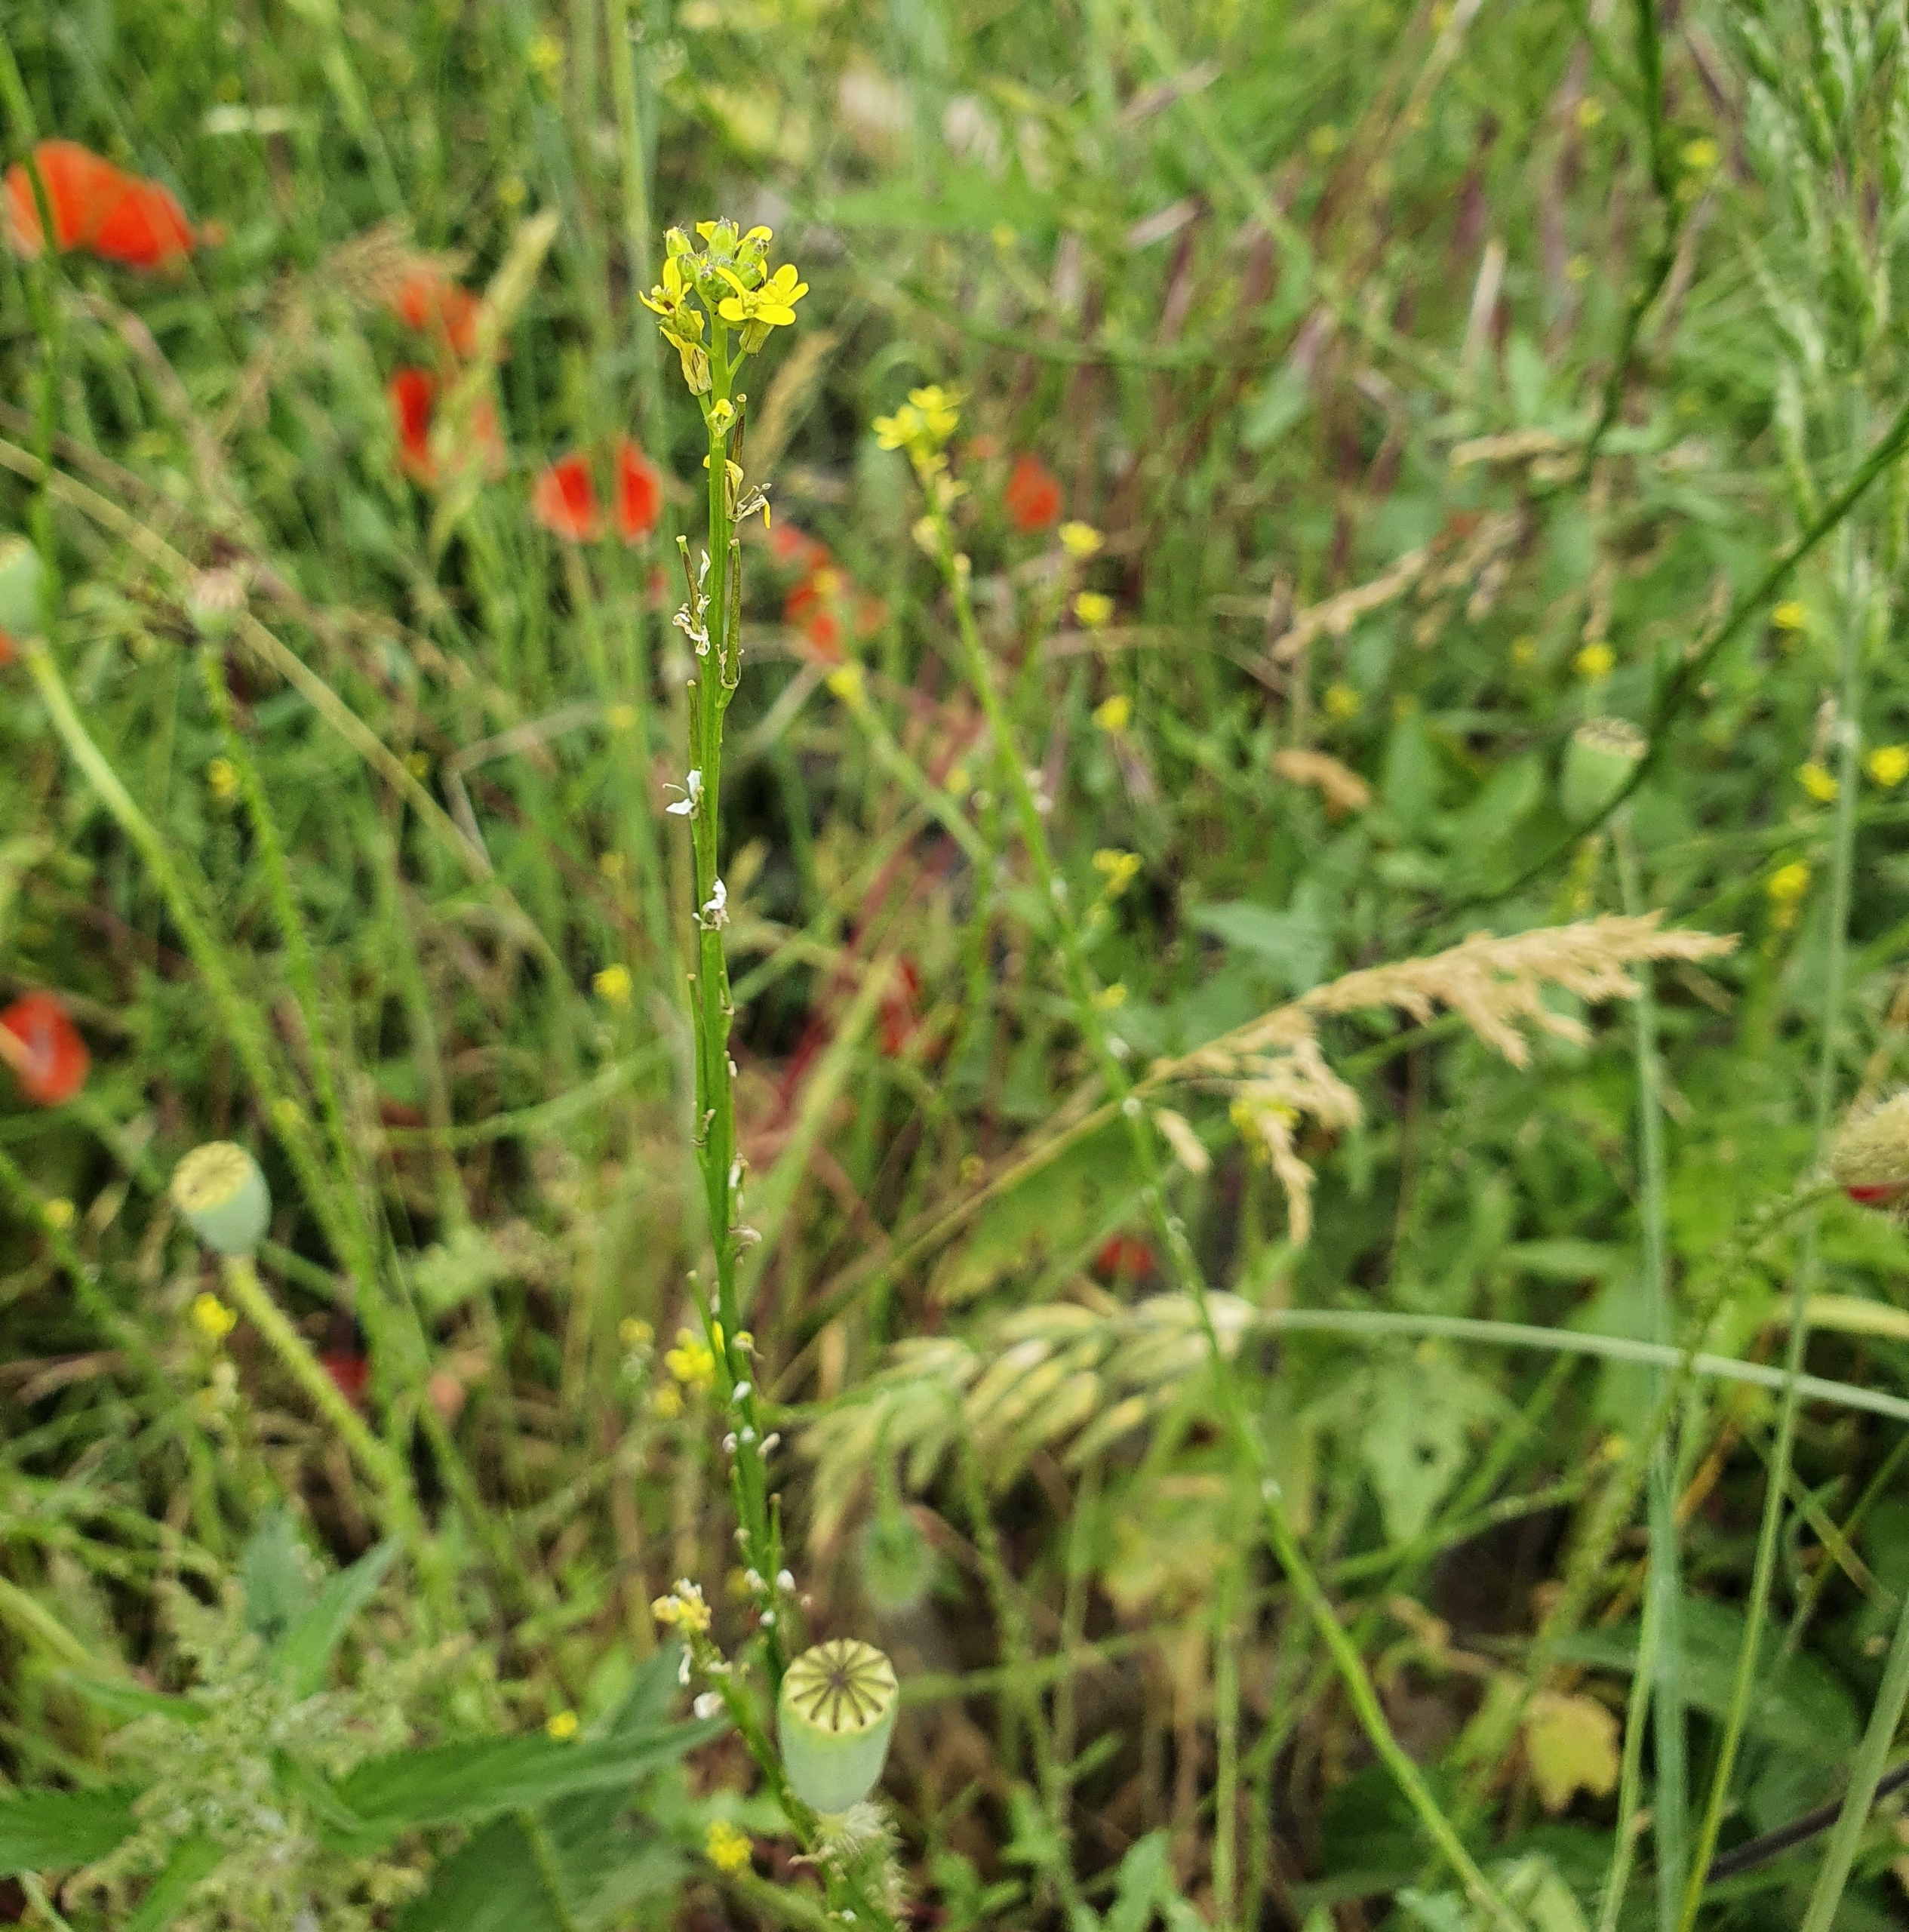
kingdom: Plantae
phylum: Tracheophyta
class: Magnoliopsida
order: Brassicales
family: Brassicaceae
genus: Sisymbrium
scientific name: Sisymbrium officinale
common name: Rank vejsennep
